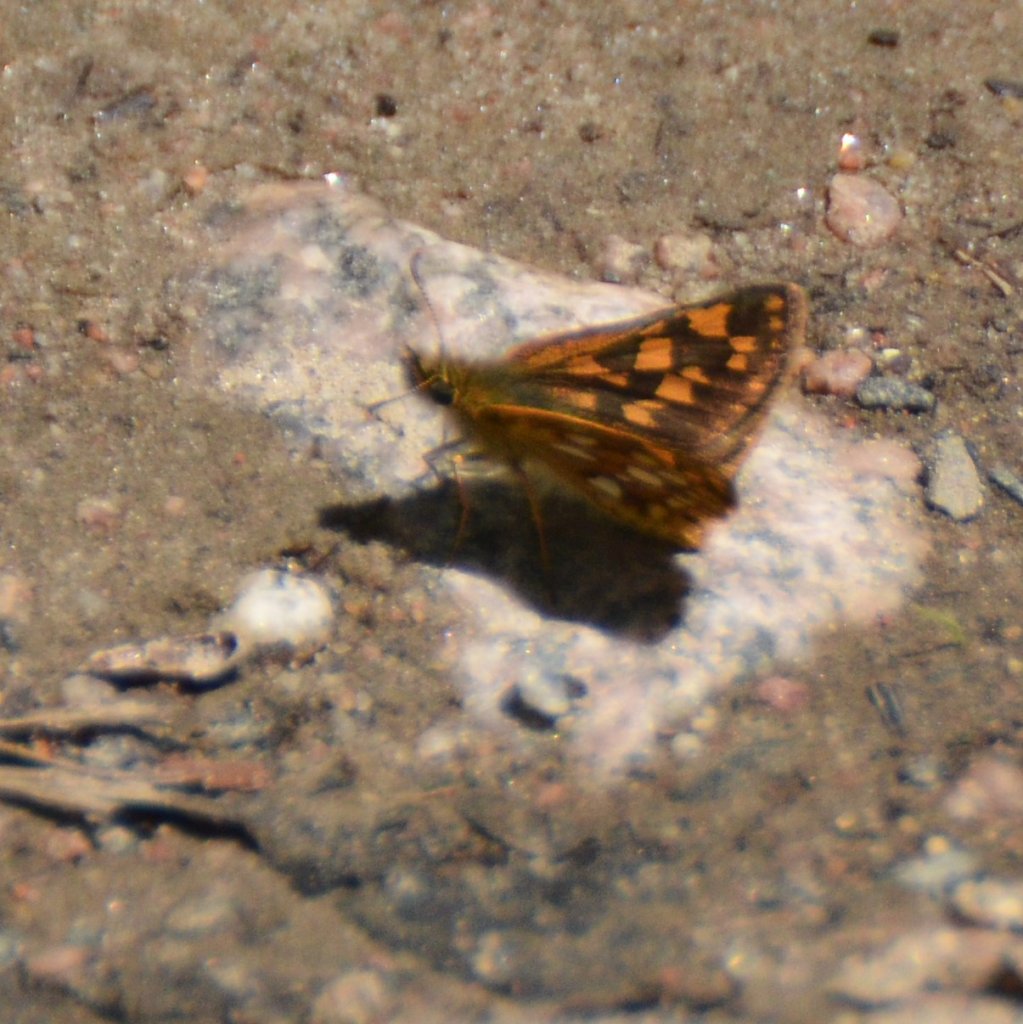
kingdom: Animalia
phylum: Arthropoda
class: Insecta
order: Lepidoptera
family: Hesperiidae
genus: Carterocephalus
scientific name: Carterocephalus palaemon
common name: Chequered Skipper
